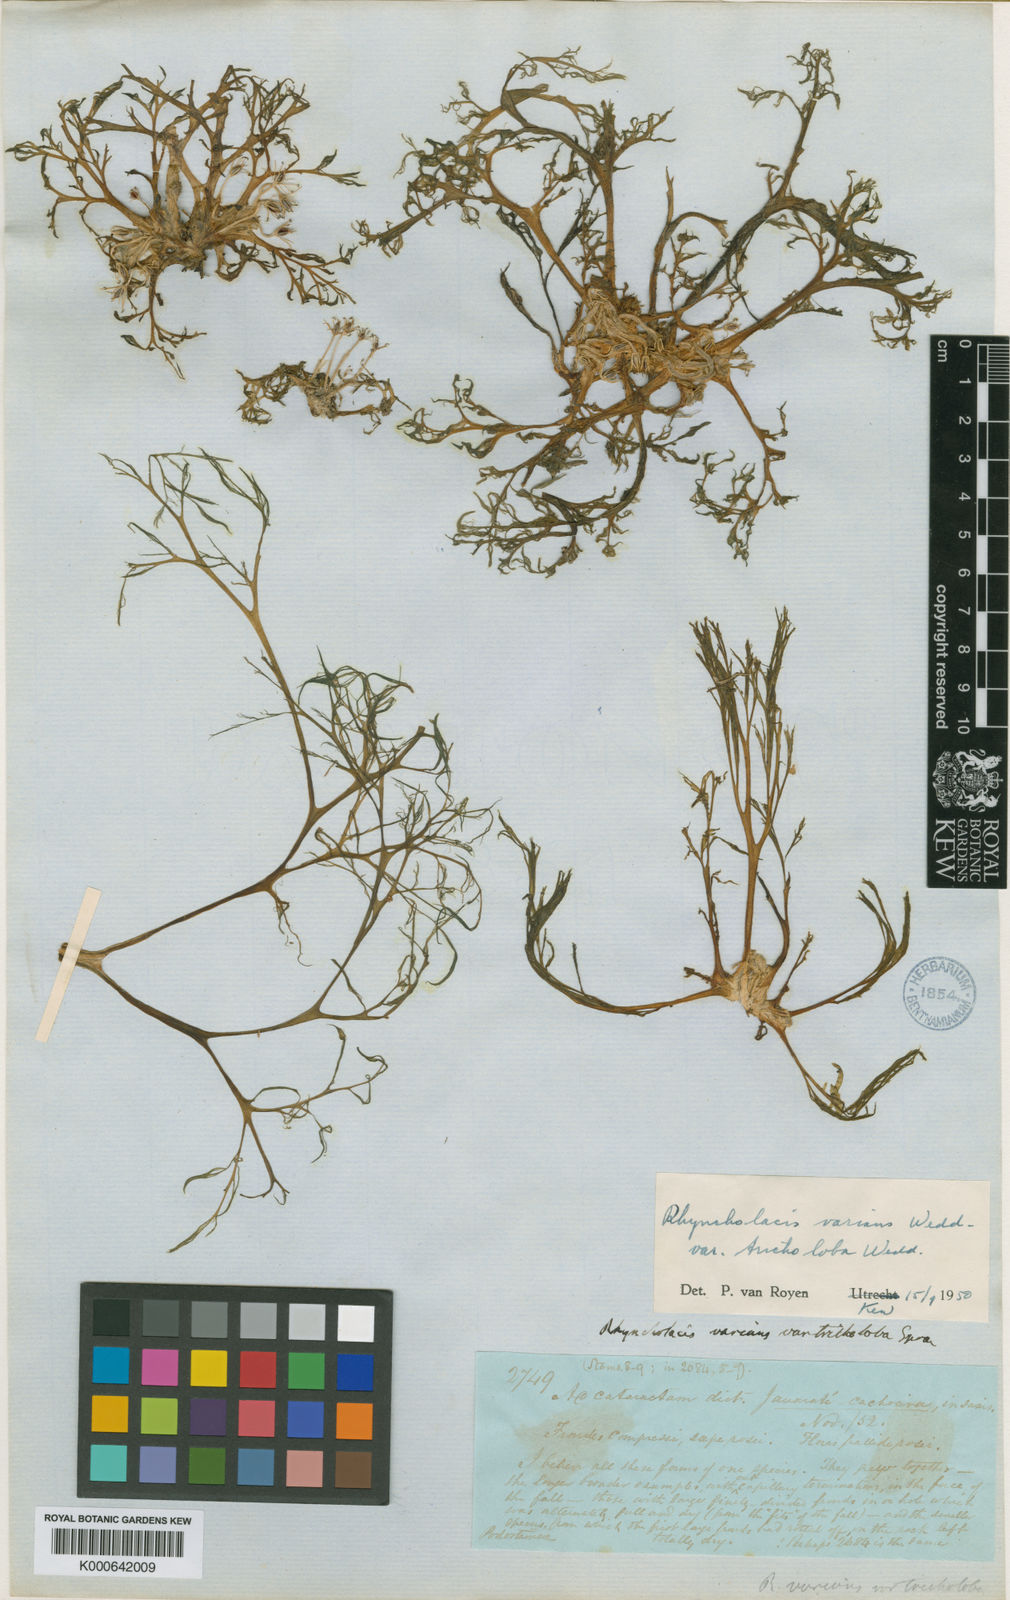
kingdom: Plantae
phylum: Tracheophyta
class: Magnoliopsida
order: Malpighiales
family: Podostemaceae
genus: Rhyncholacis
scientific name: Rhyncholacis
